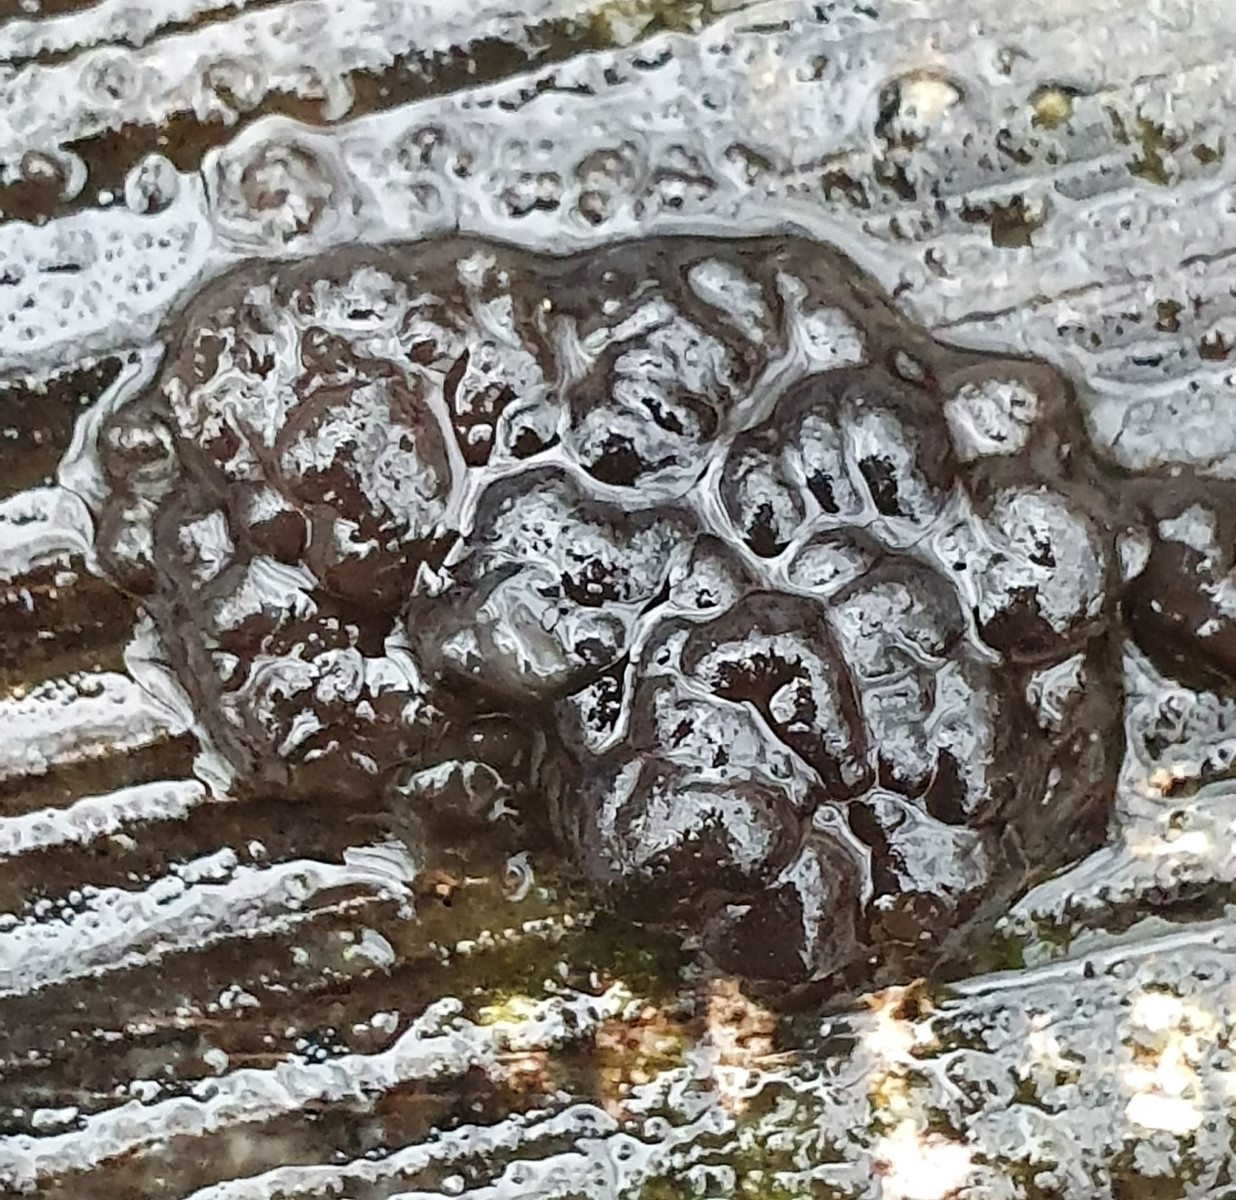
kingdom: Fungi
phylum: Basidiomycota
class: Agaricomycetes
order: Auriculariales
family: Auriculariaceae
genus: Exidia
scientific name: Exidia nigricans
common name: almindelig bævretop
